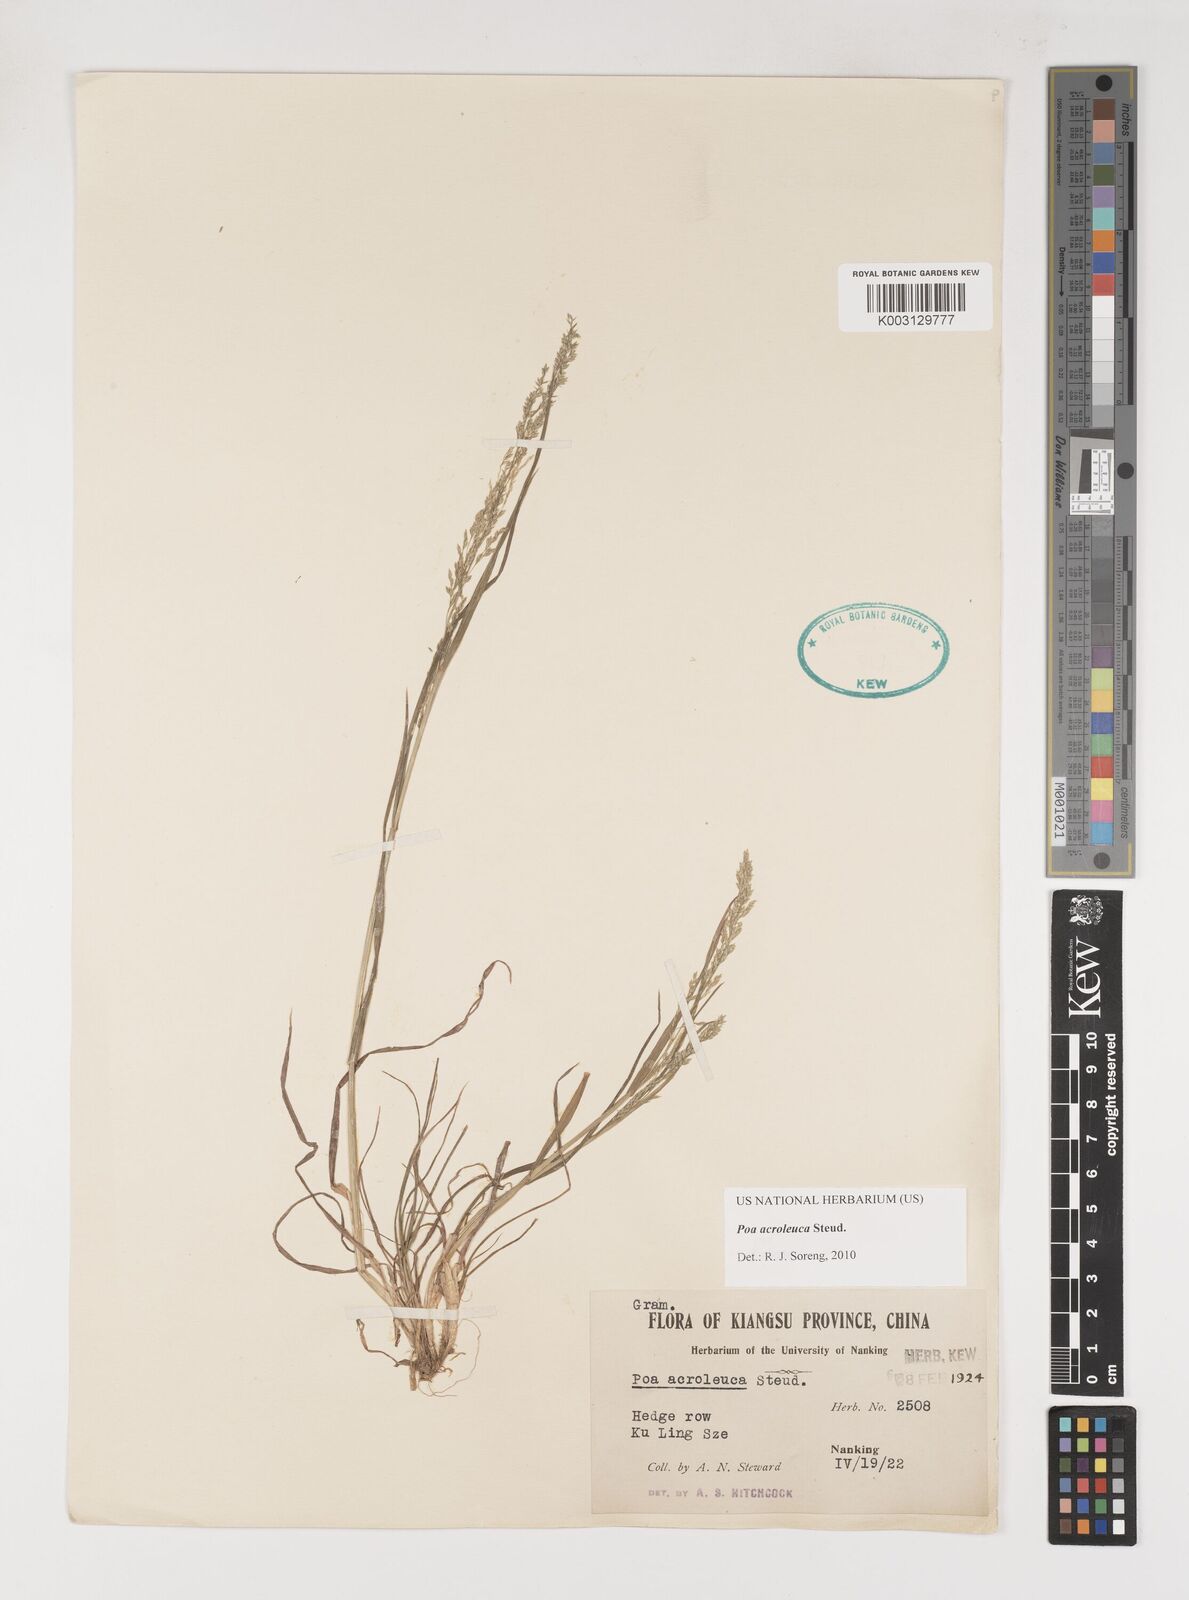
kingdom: Plantae
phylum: Tracheophyta
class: Liliopsida
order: Poales
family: Poaceae
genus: Poa
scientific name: Poa acroleuca
